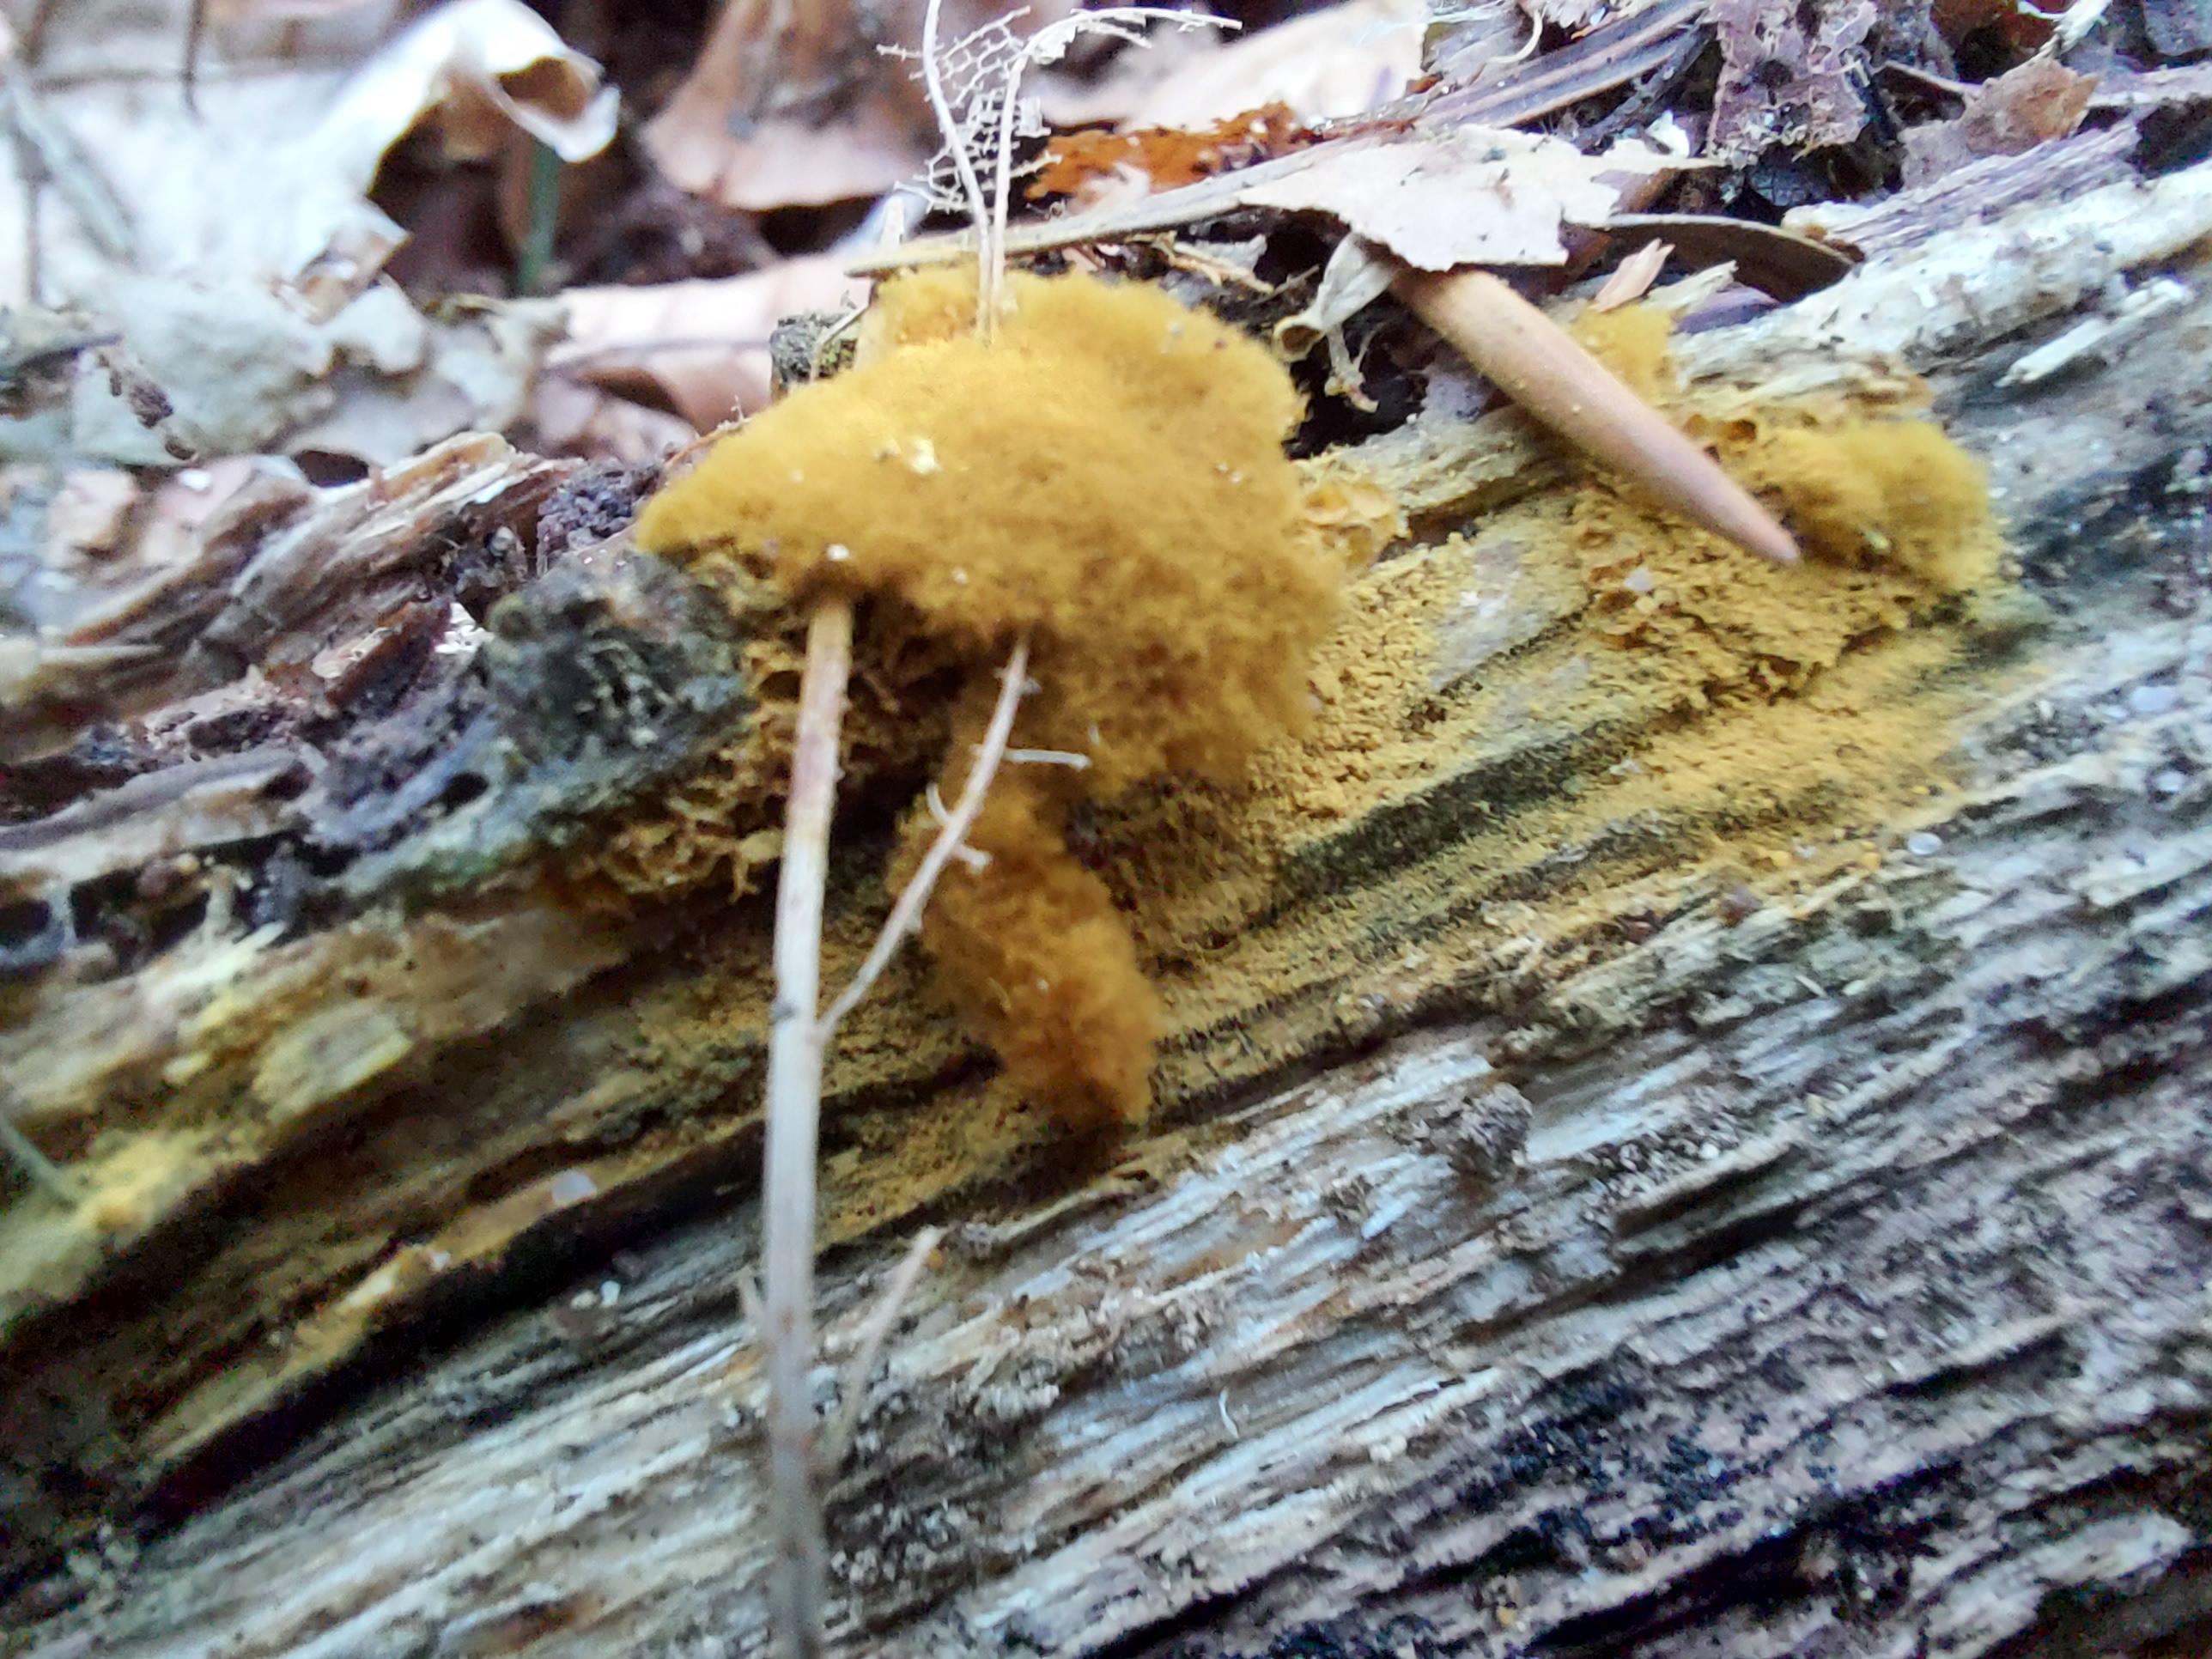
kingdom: Protozoa
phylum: Mycetozoa
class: Myxomycetes
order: Trichiales
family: Trichiaceae
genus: Oligonema
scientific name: Oligonema persimile
